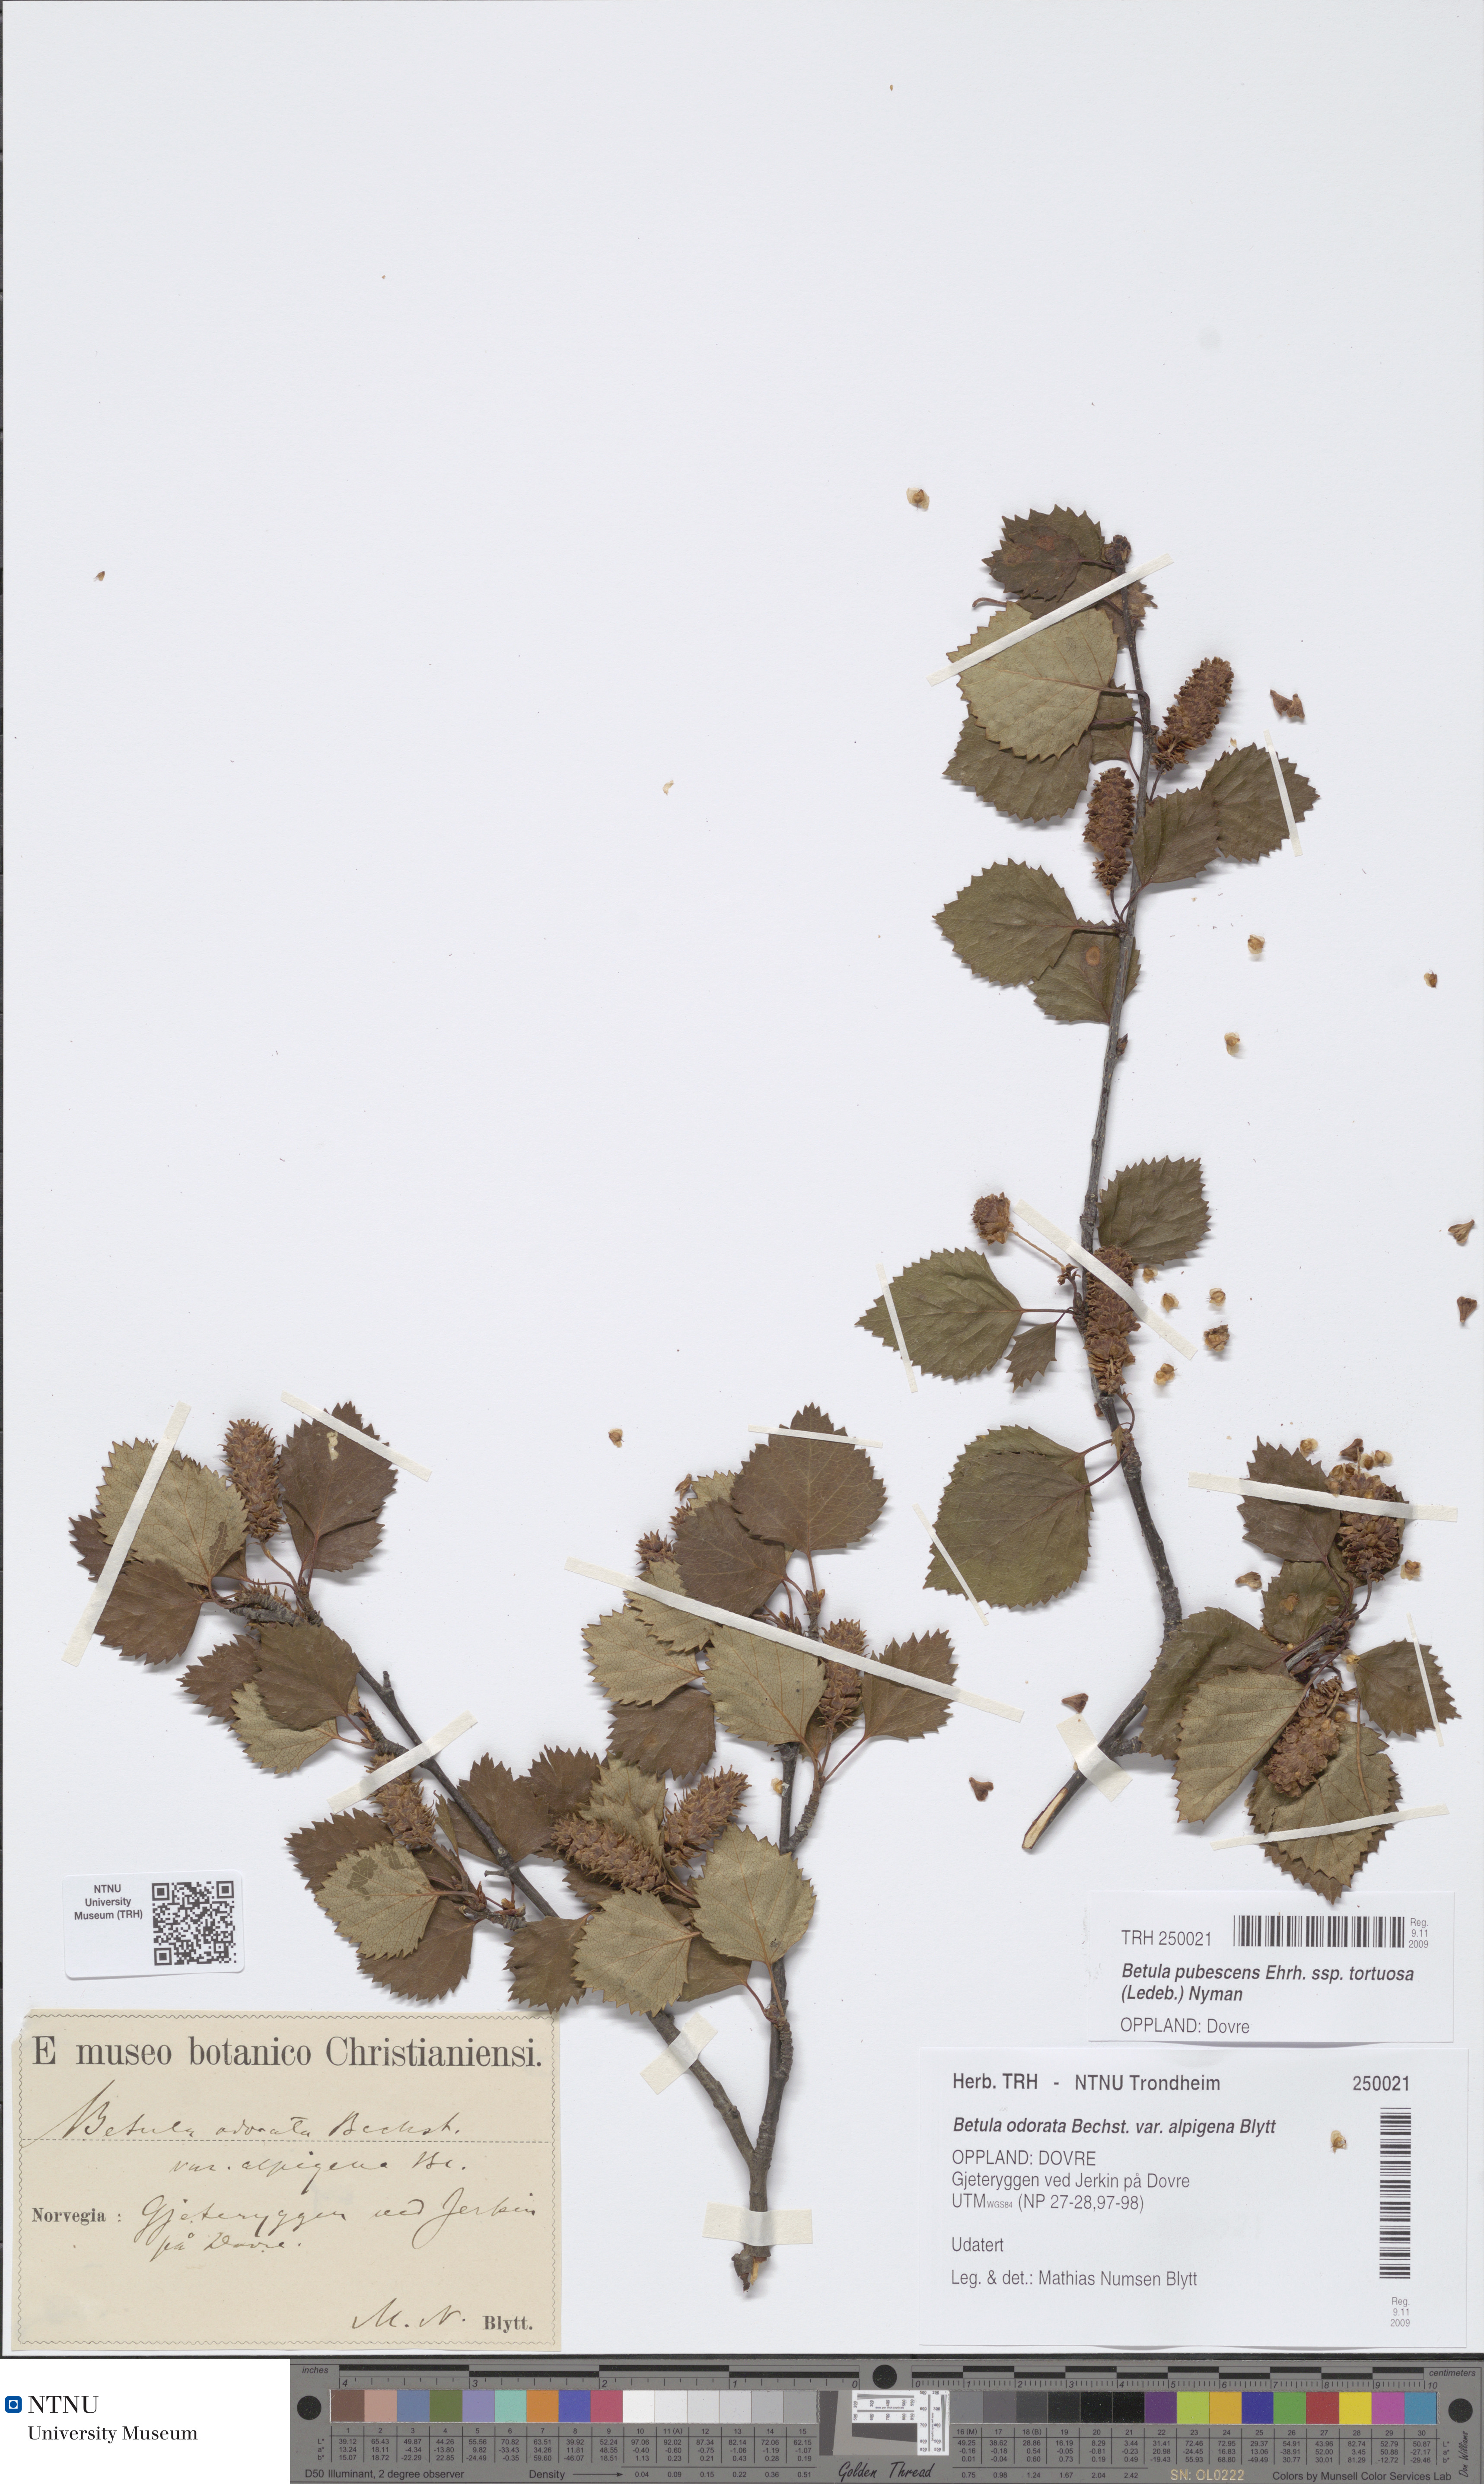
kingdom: Plantae
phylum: Tracheophyta
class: Magnoliopsida
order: Fagales
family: Betulaceae
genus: Betula
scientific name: Betula pubescens
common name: Downy birch
